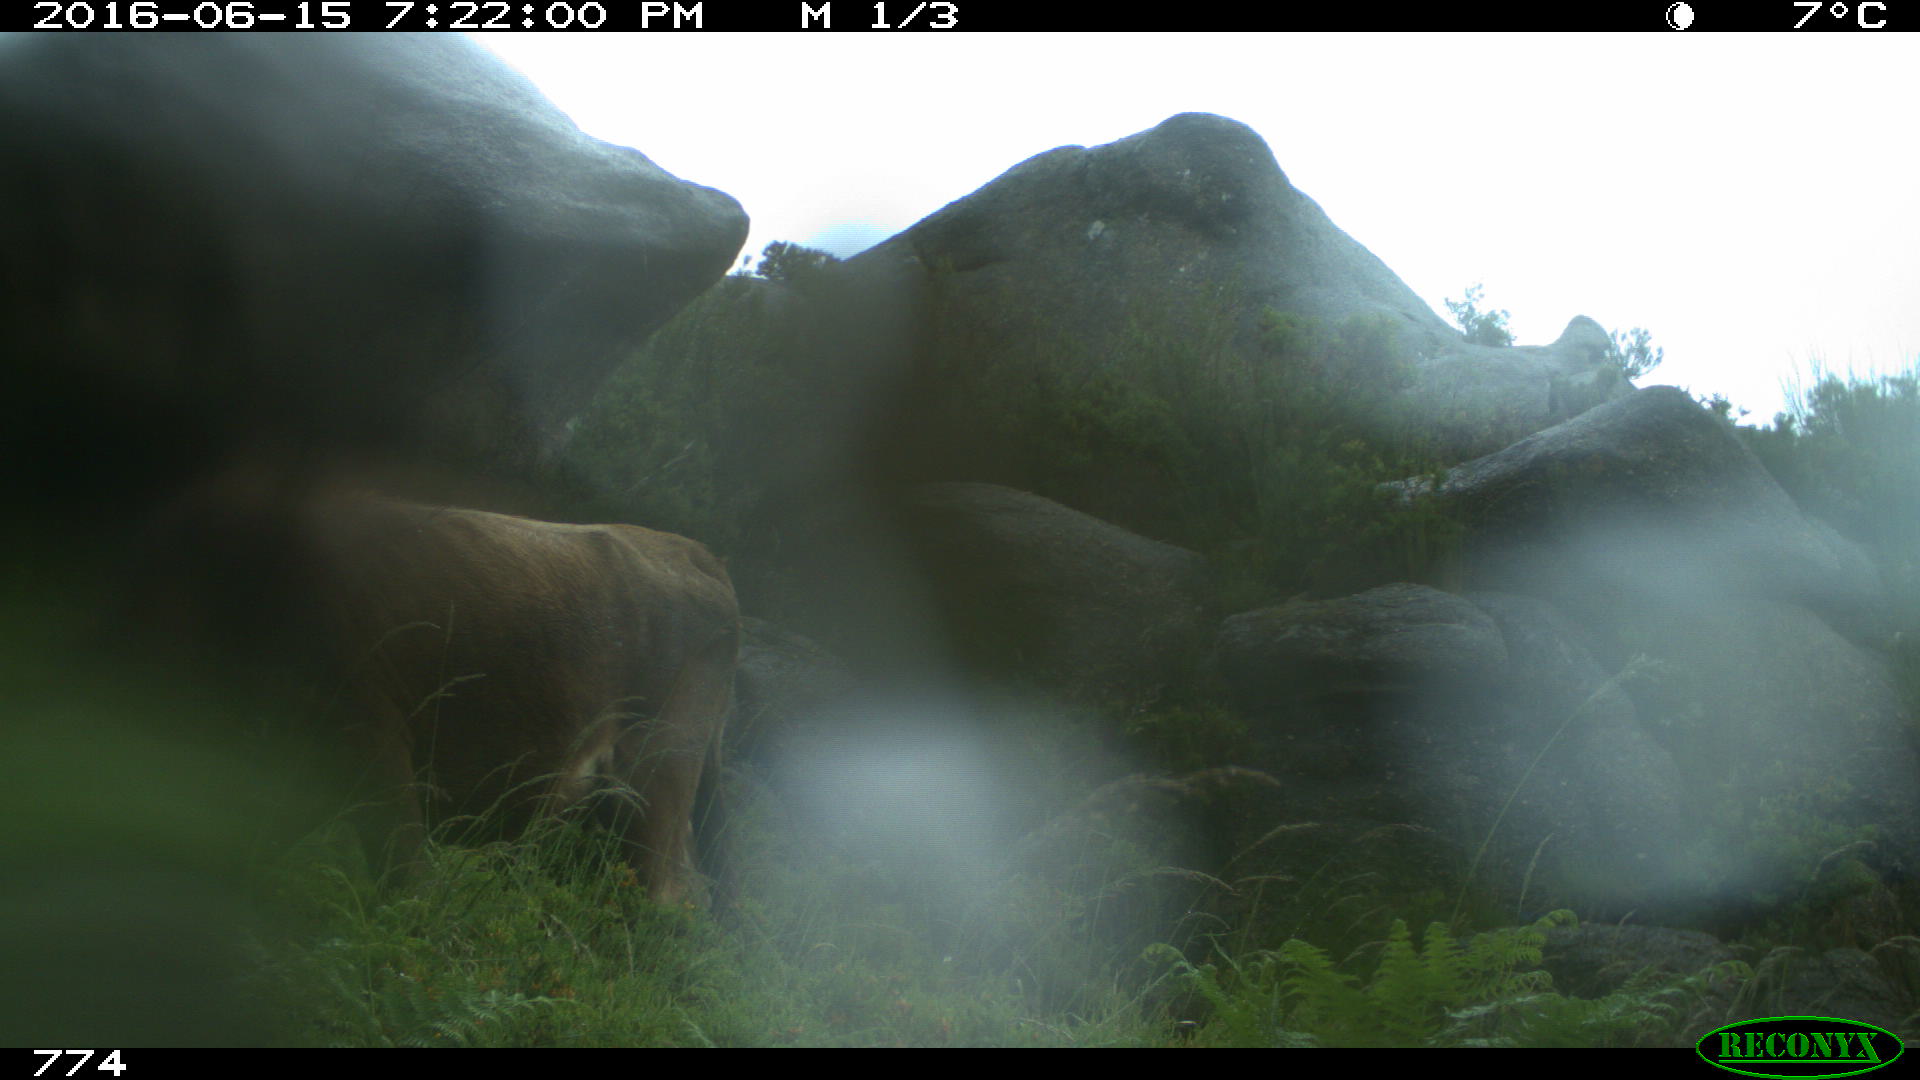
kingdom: Animalia
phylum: Chordata
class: Mammalia
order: Artiodactyla
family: Bovidae
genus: Bos
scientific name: Bos taurus
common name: Domesticated cattle
